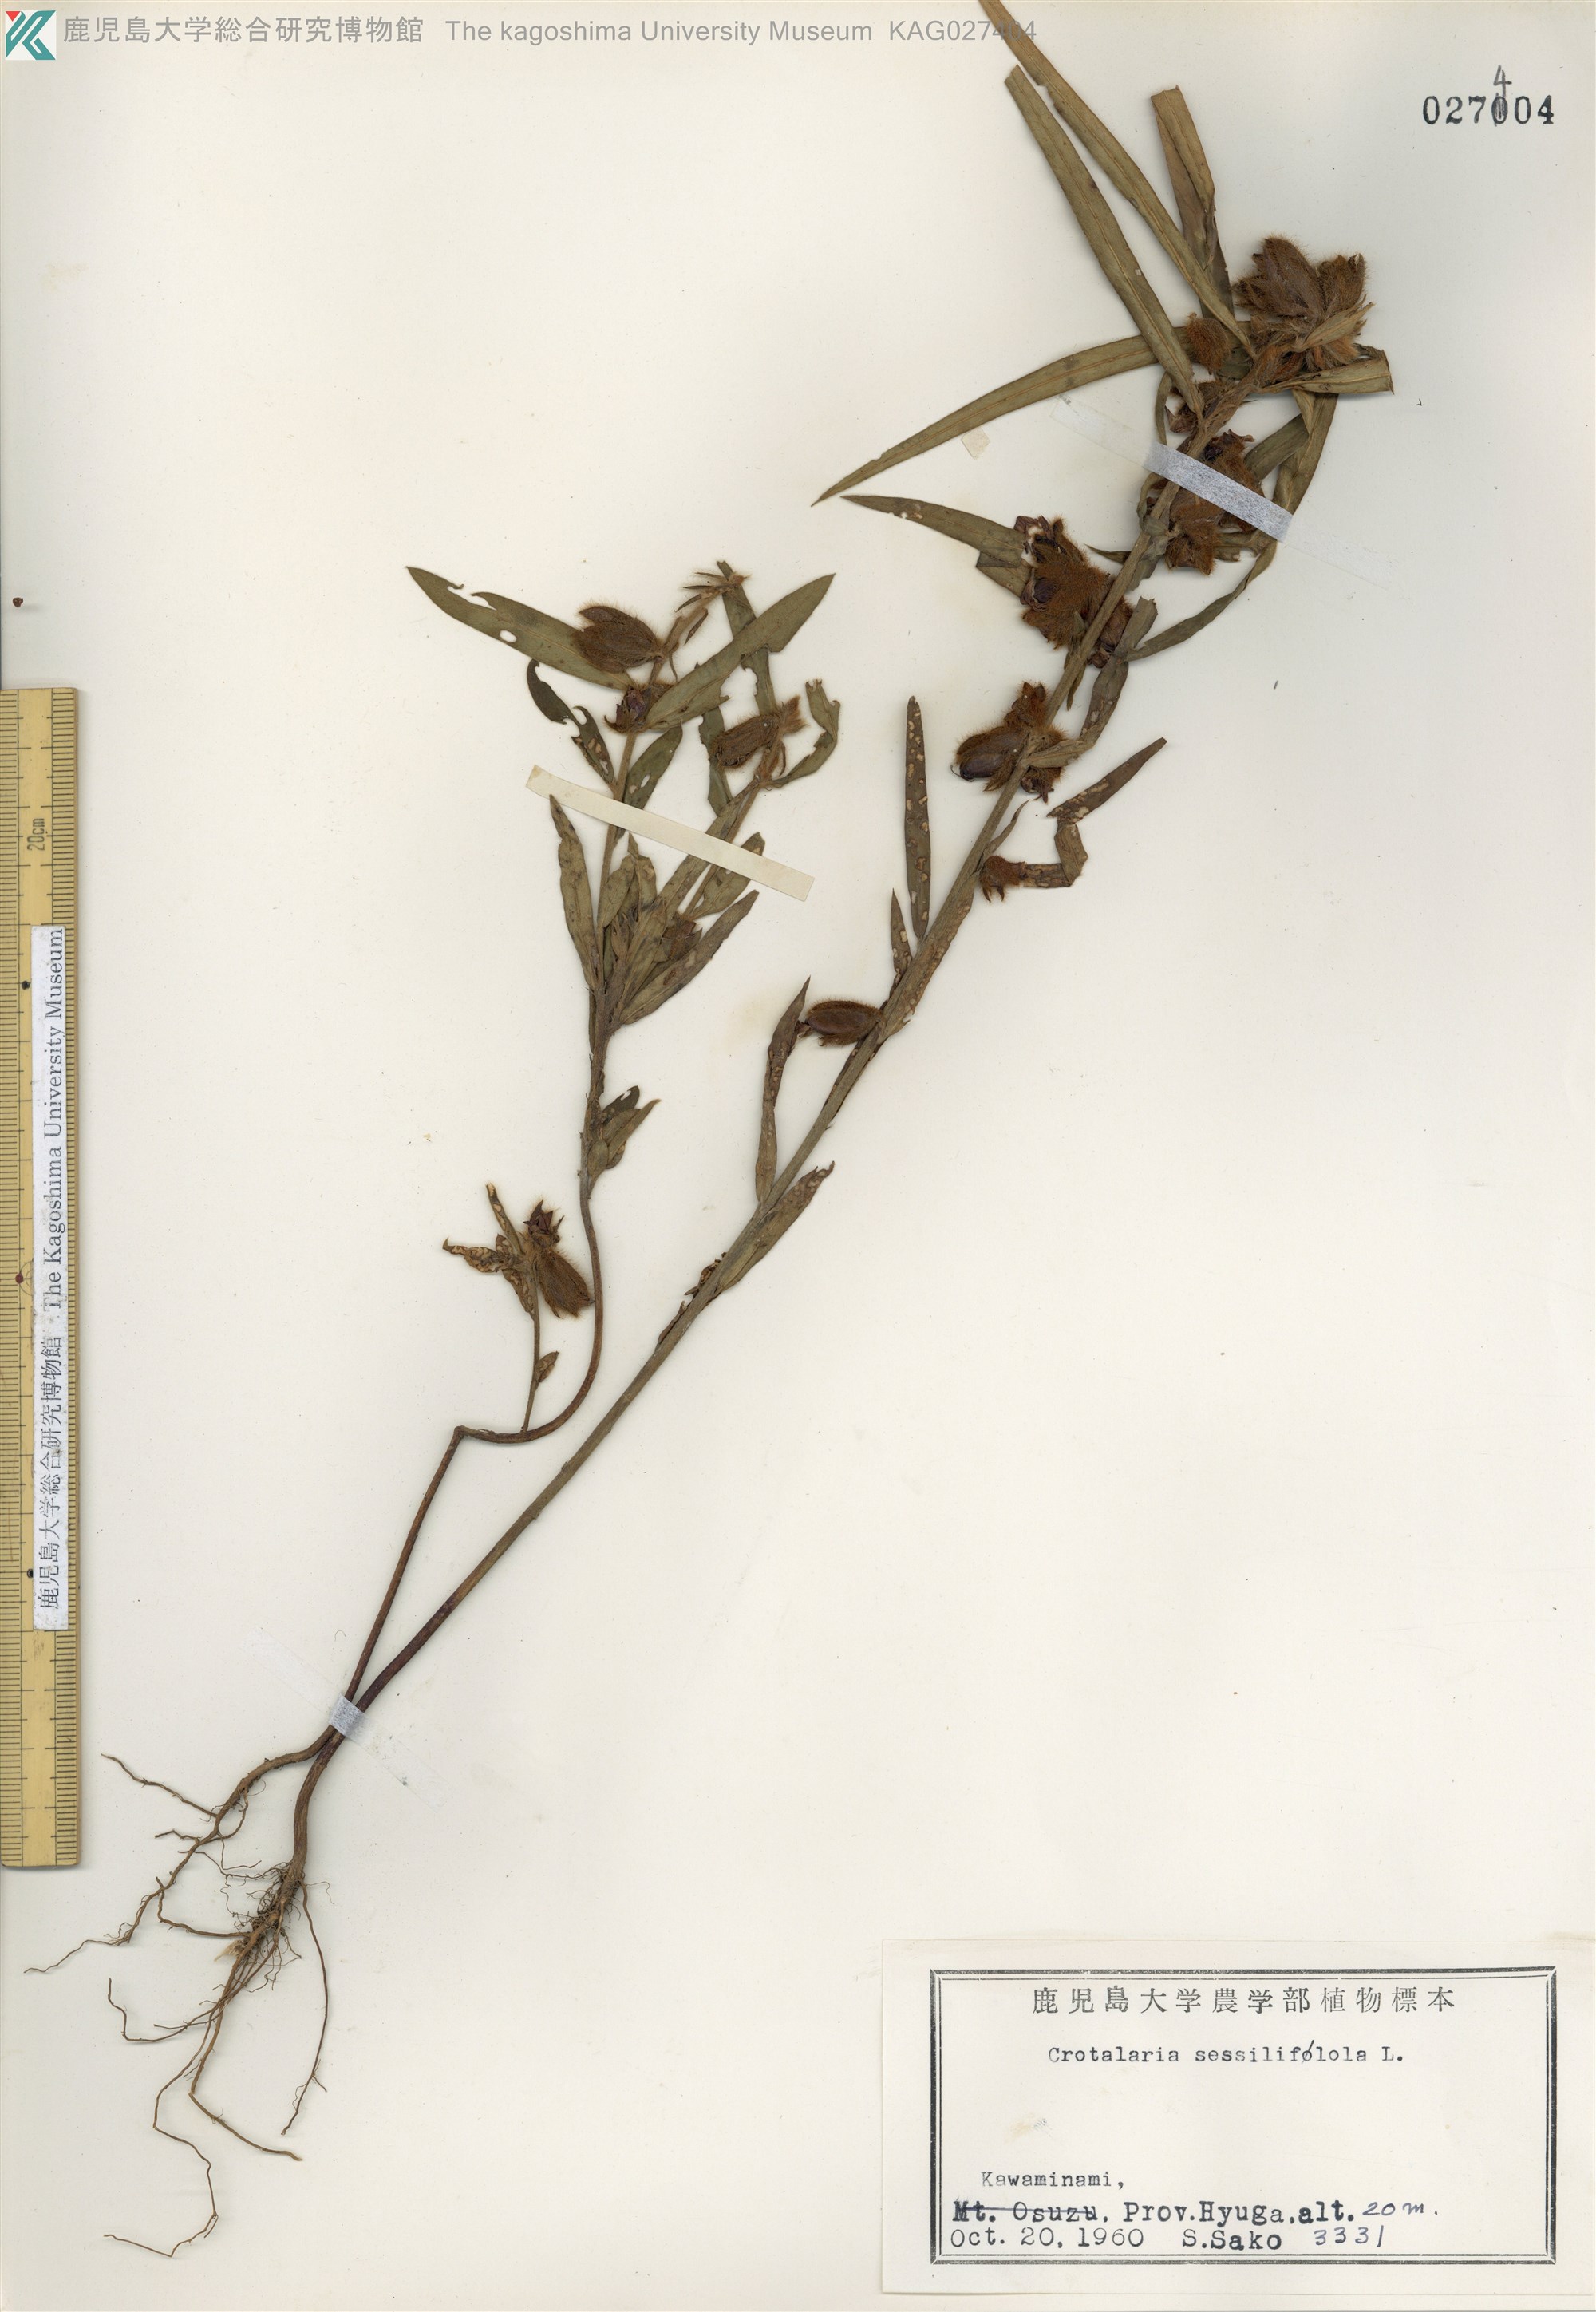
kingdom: Plantae
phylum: Tracheophyta
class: Magnoliopsida
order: Fabales
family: Fabaceae
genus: Crotalaria
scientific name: Crotalaria sessiliflora
